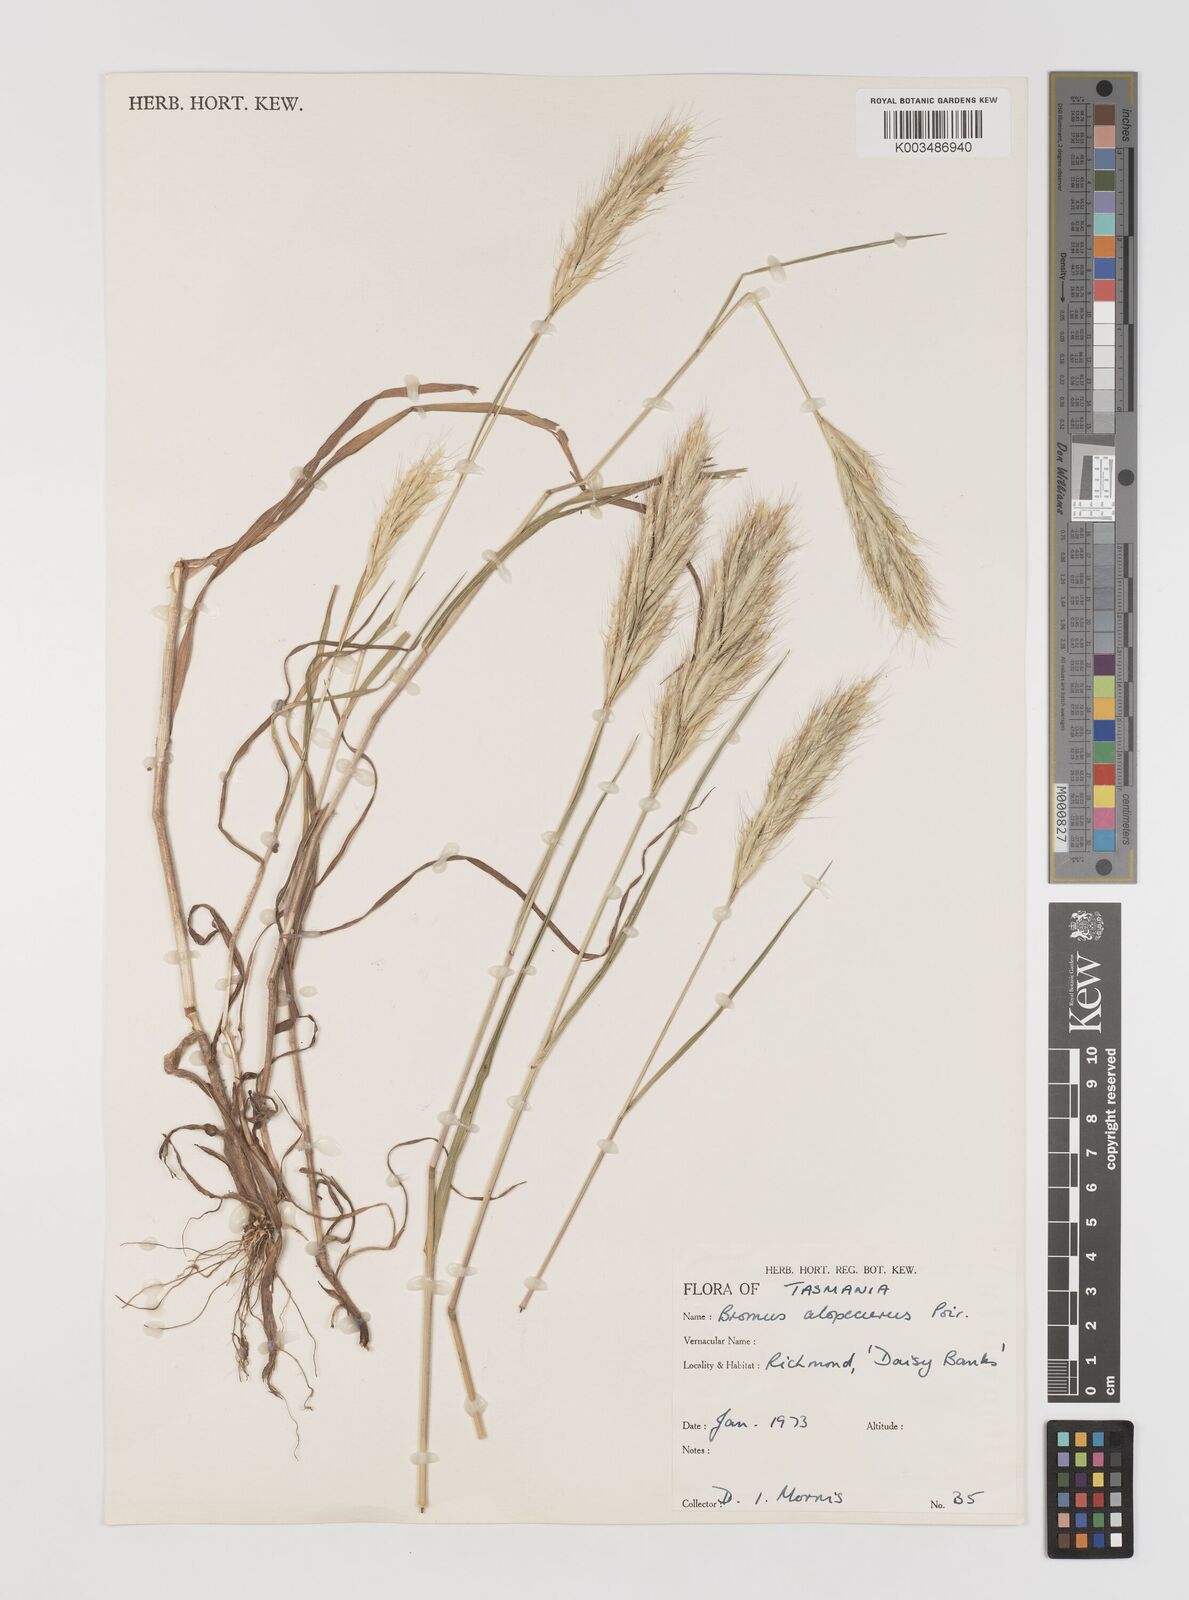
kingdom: Plantae
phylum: Tracheophyta
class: Liliopsida
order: Poales
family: Poaceae
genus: Bromus
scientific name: Bromus alopecuros
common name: Weedy brome
